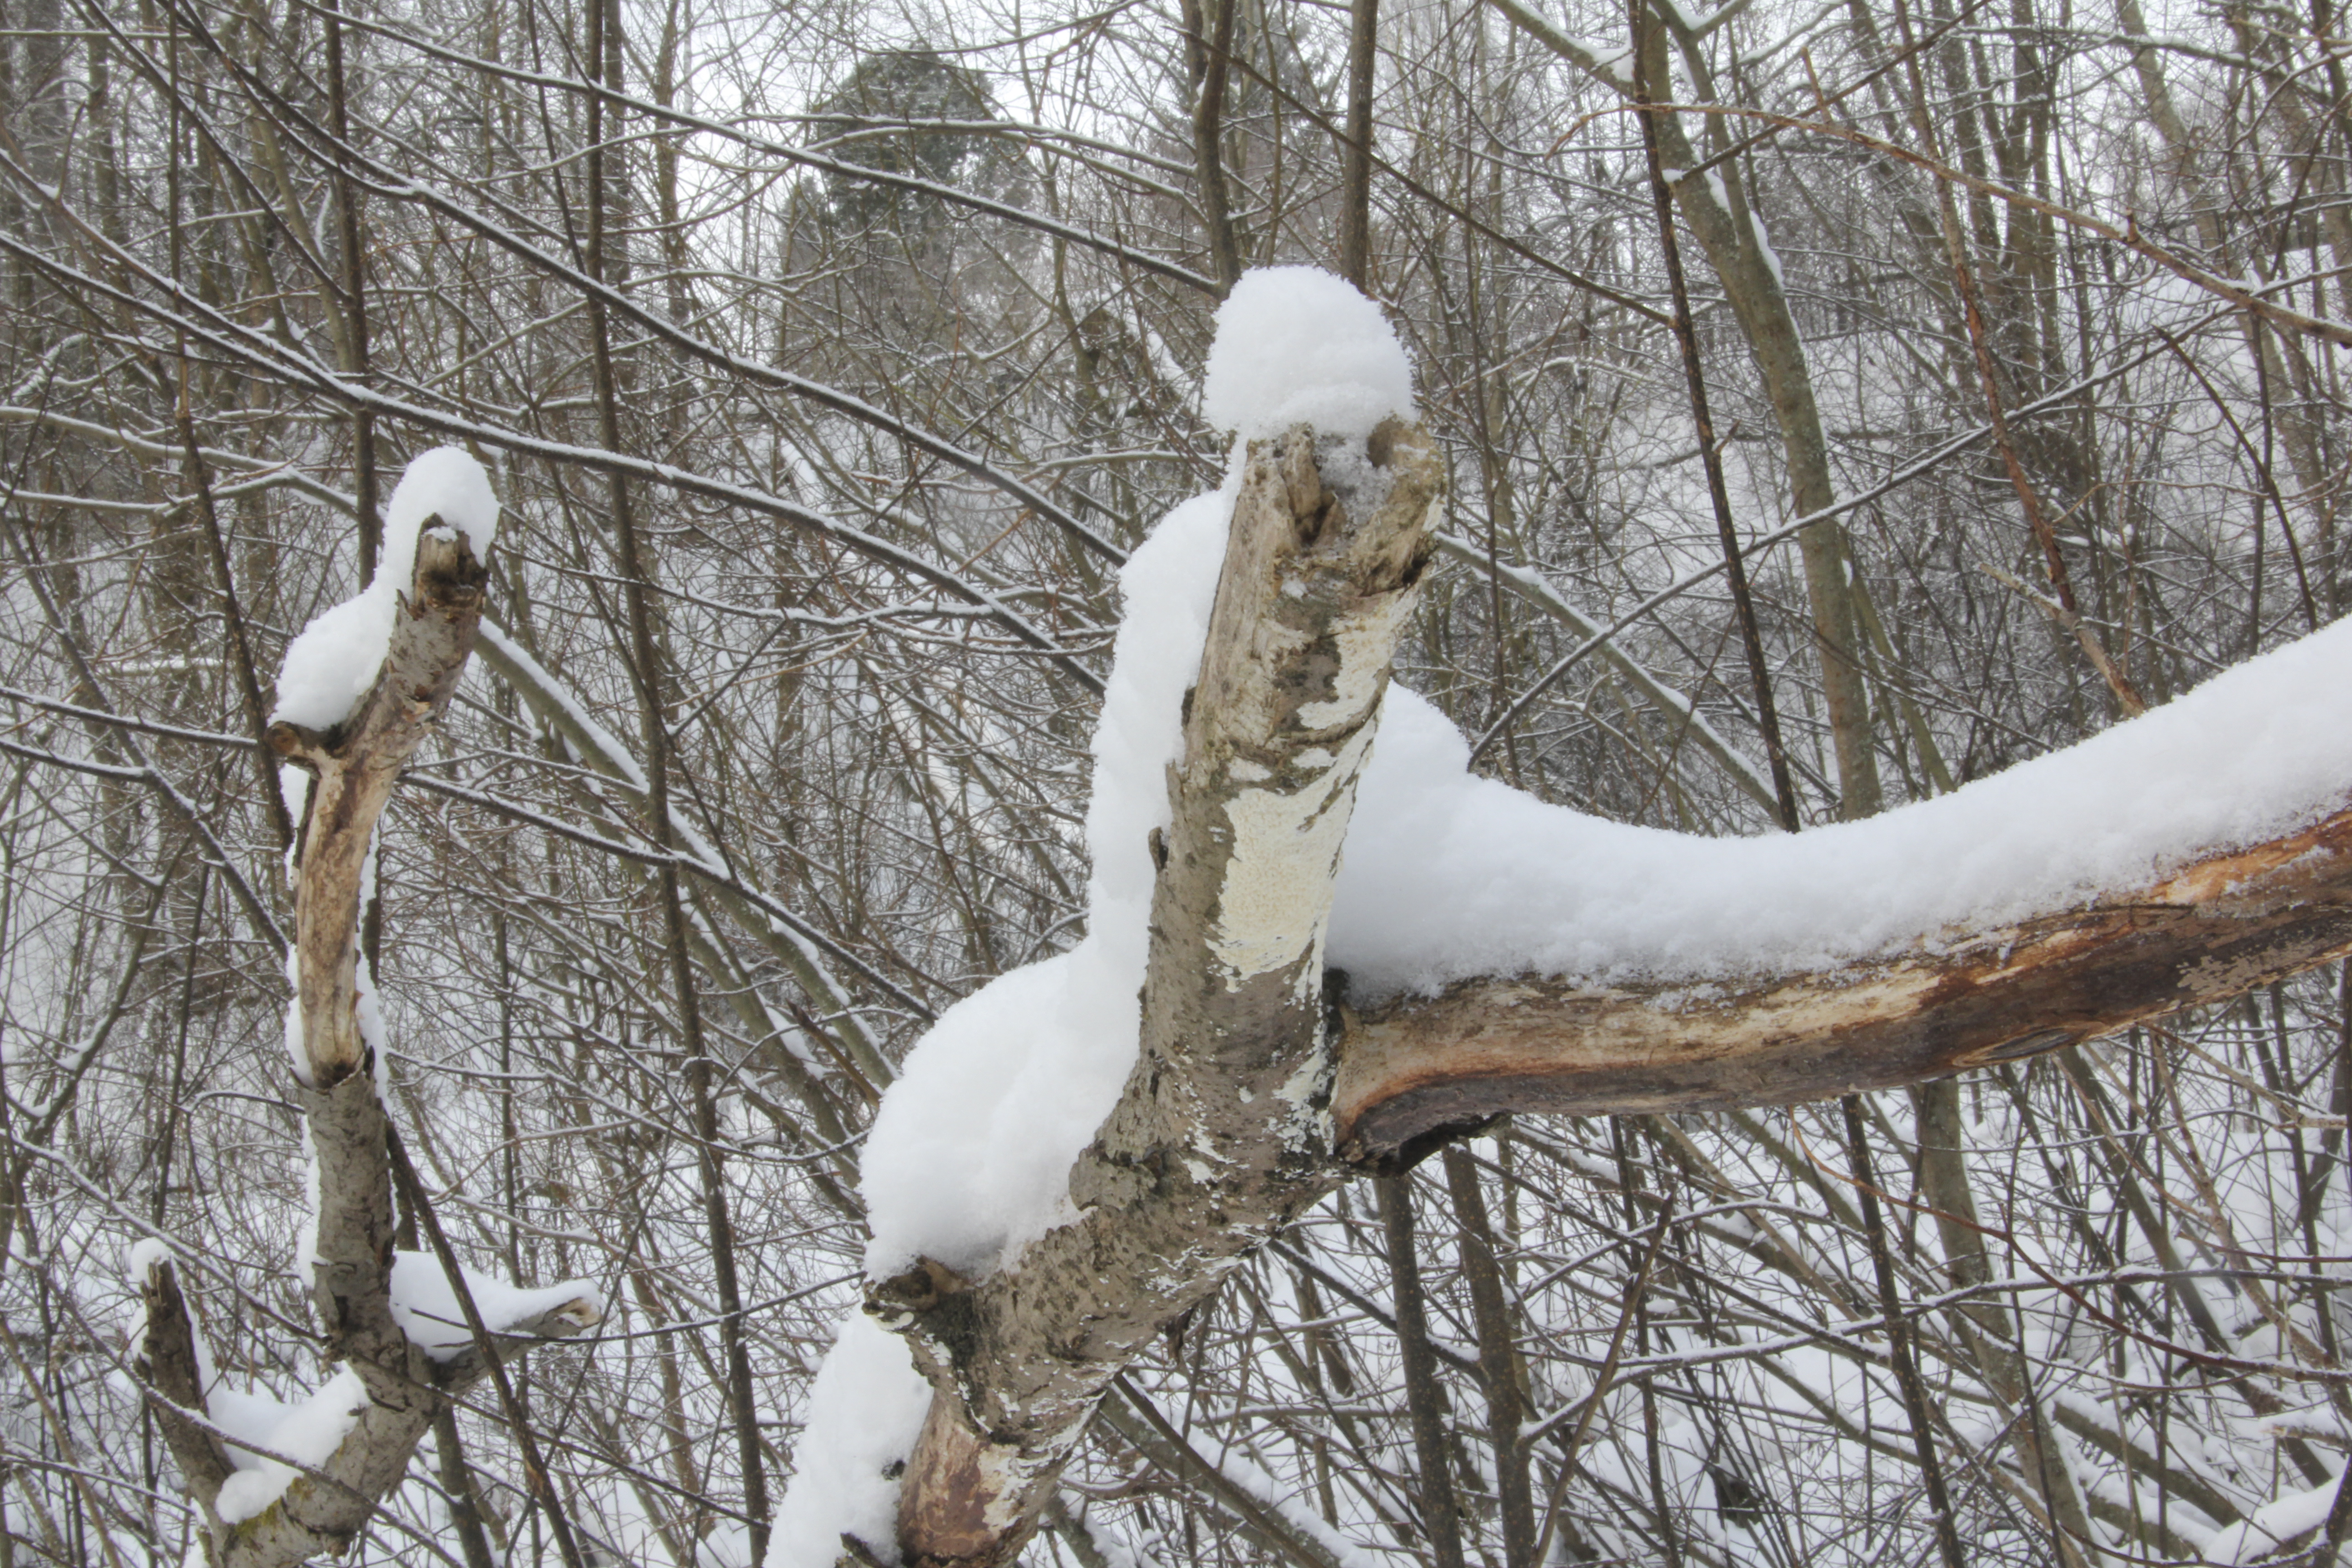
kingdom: Fungi
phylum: Basidiomycota
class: Agaricomycetes
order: Hymenochaetales
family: Schizoporaceae
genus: Xylodon
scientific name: Xylodon radula
